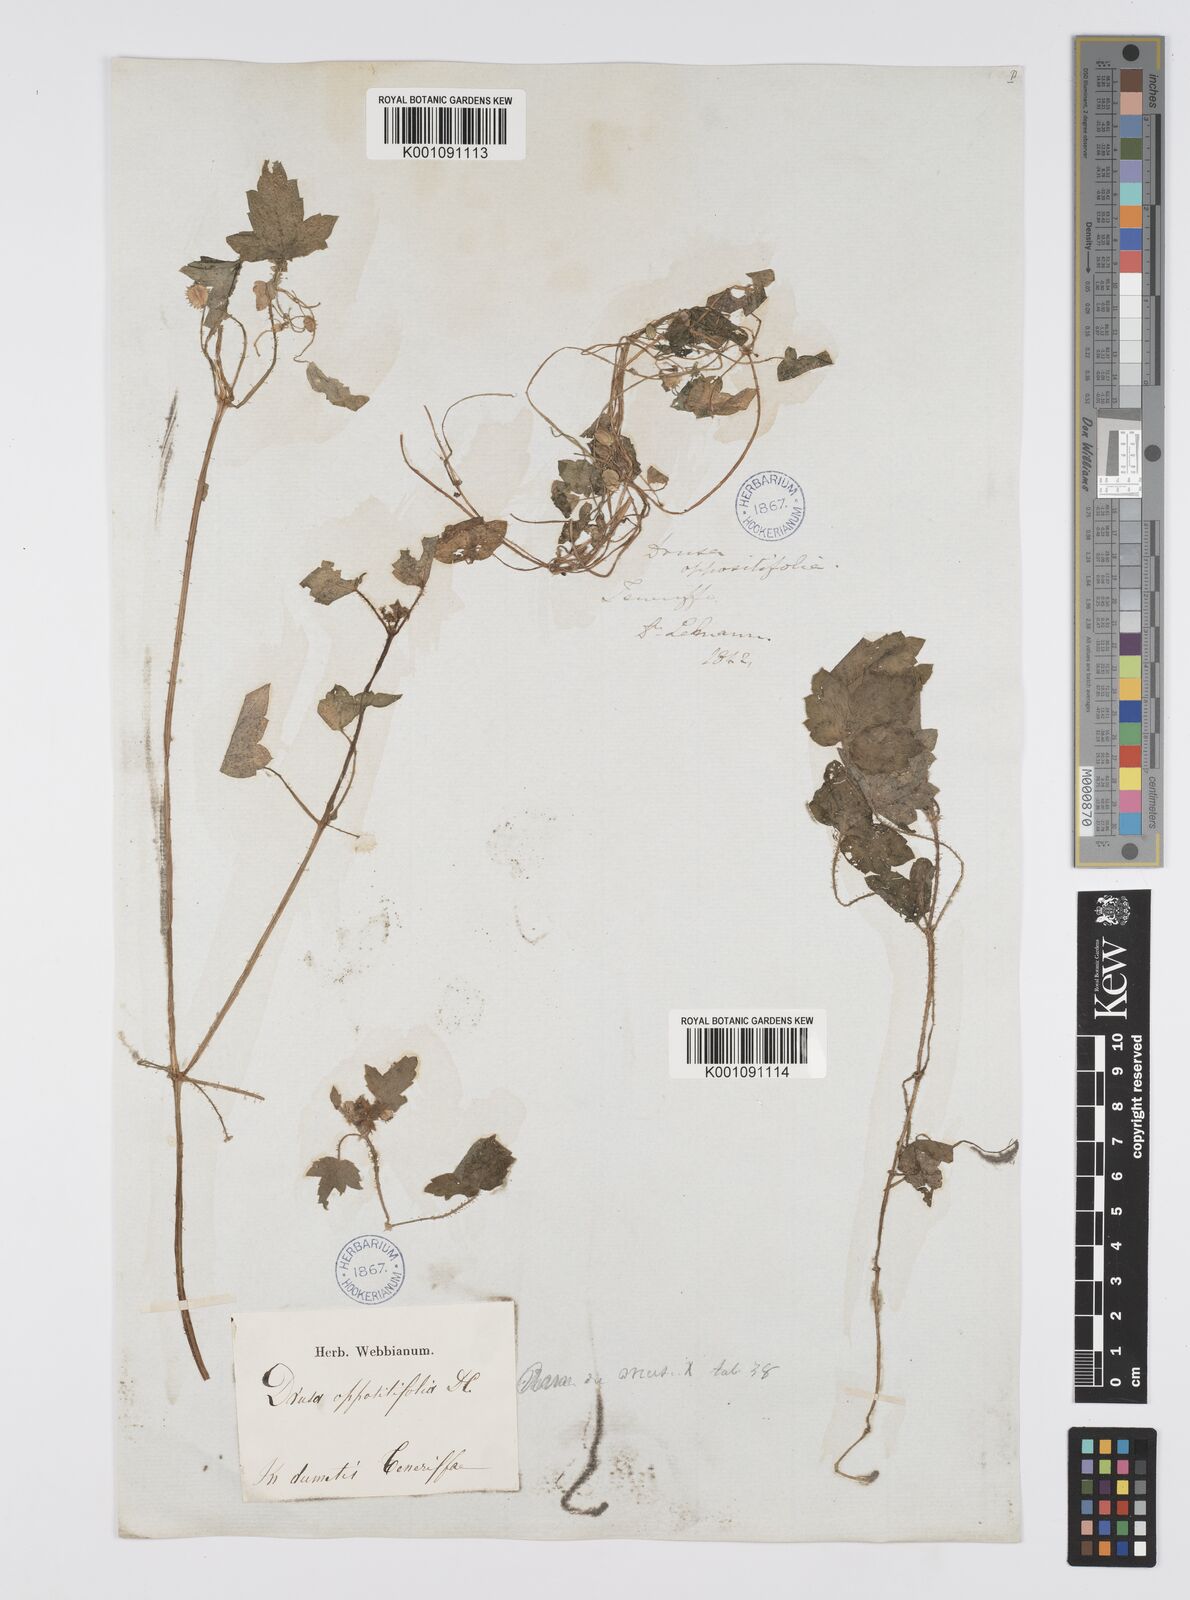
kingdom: Plantae
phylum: Tracheophyta
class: Magnoliopsida
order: Apiales
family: Apiaceae
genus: Drusa
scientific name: Drusa glandulosa
